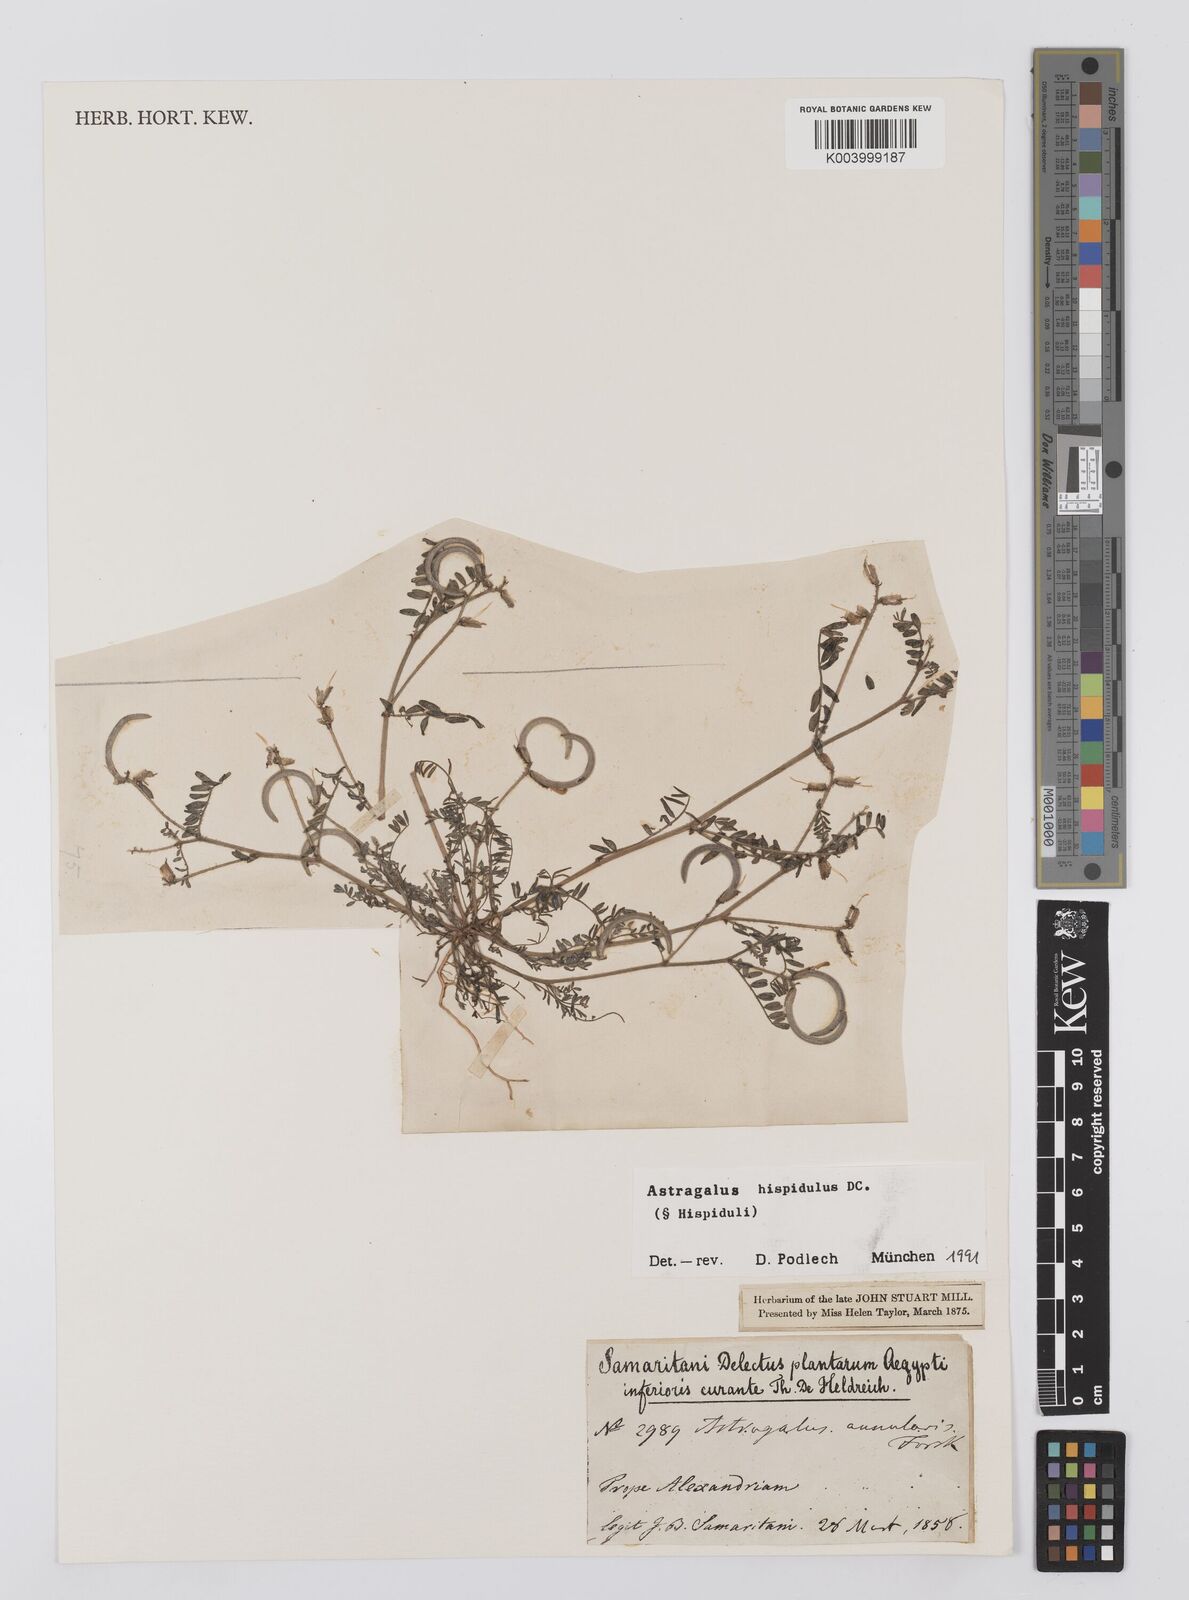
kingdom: Plantae
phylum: Tracheophyta
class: Magnoliopsida
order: Fabales
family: Fabaceae
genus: Astragalus
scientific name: Astragalus hispidulus
